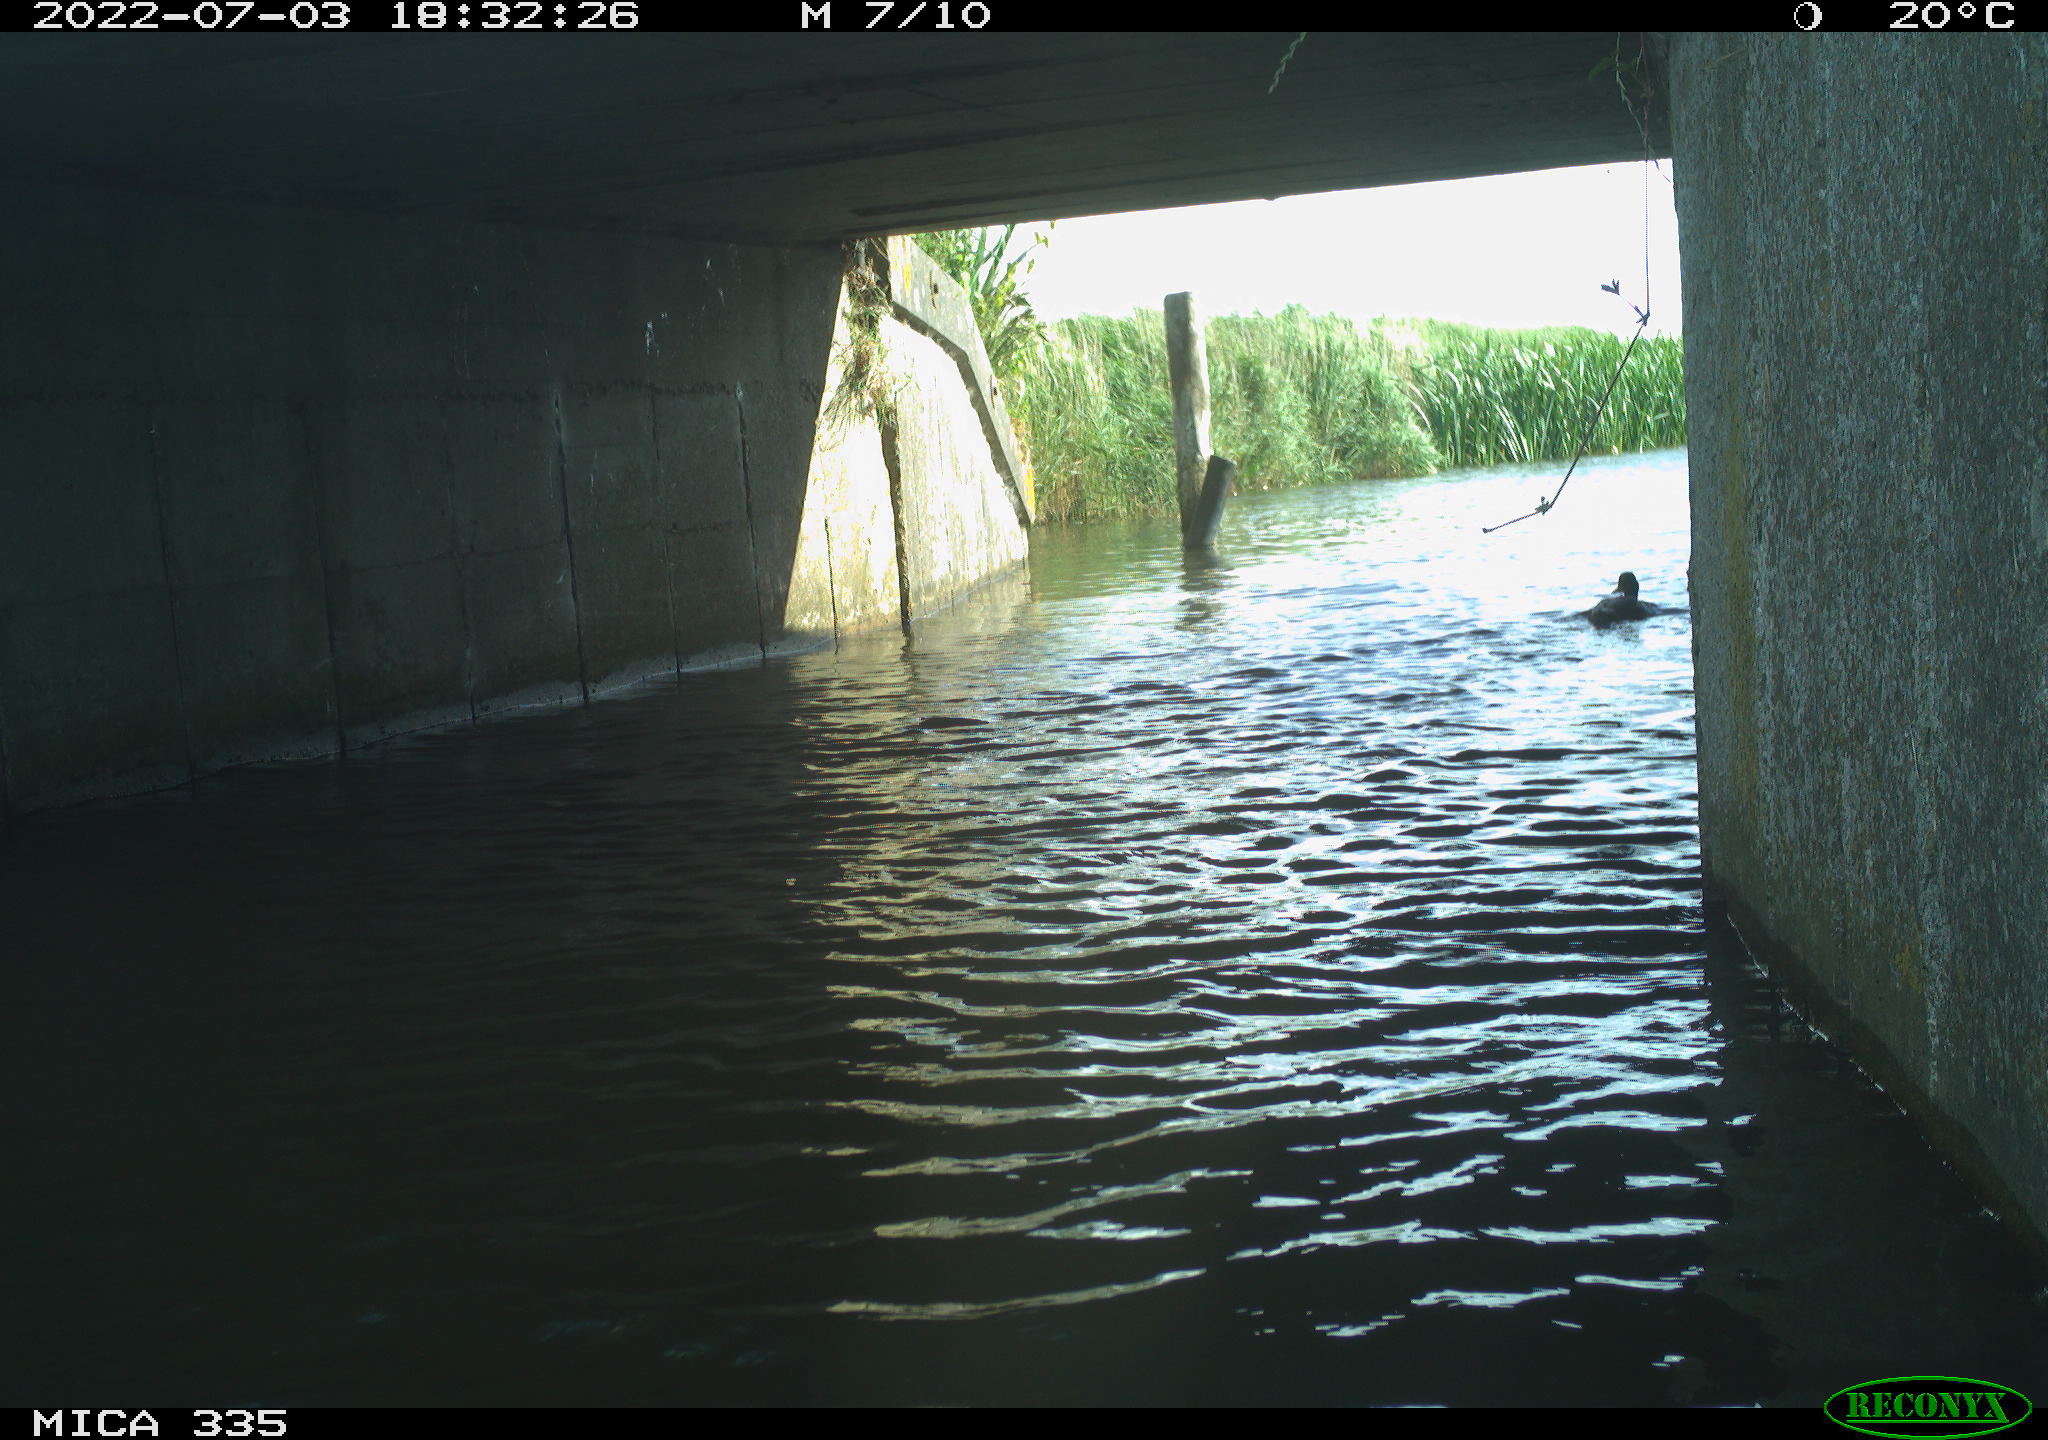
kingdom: Animalia
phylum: Chordata
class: Aves
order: Anseriformes
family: Anatidae
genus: Anas
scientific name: Anas platyrhynchos
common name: Mallard
